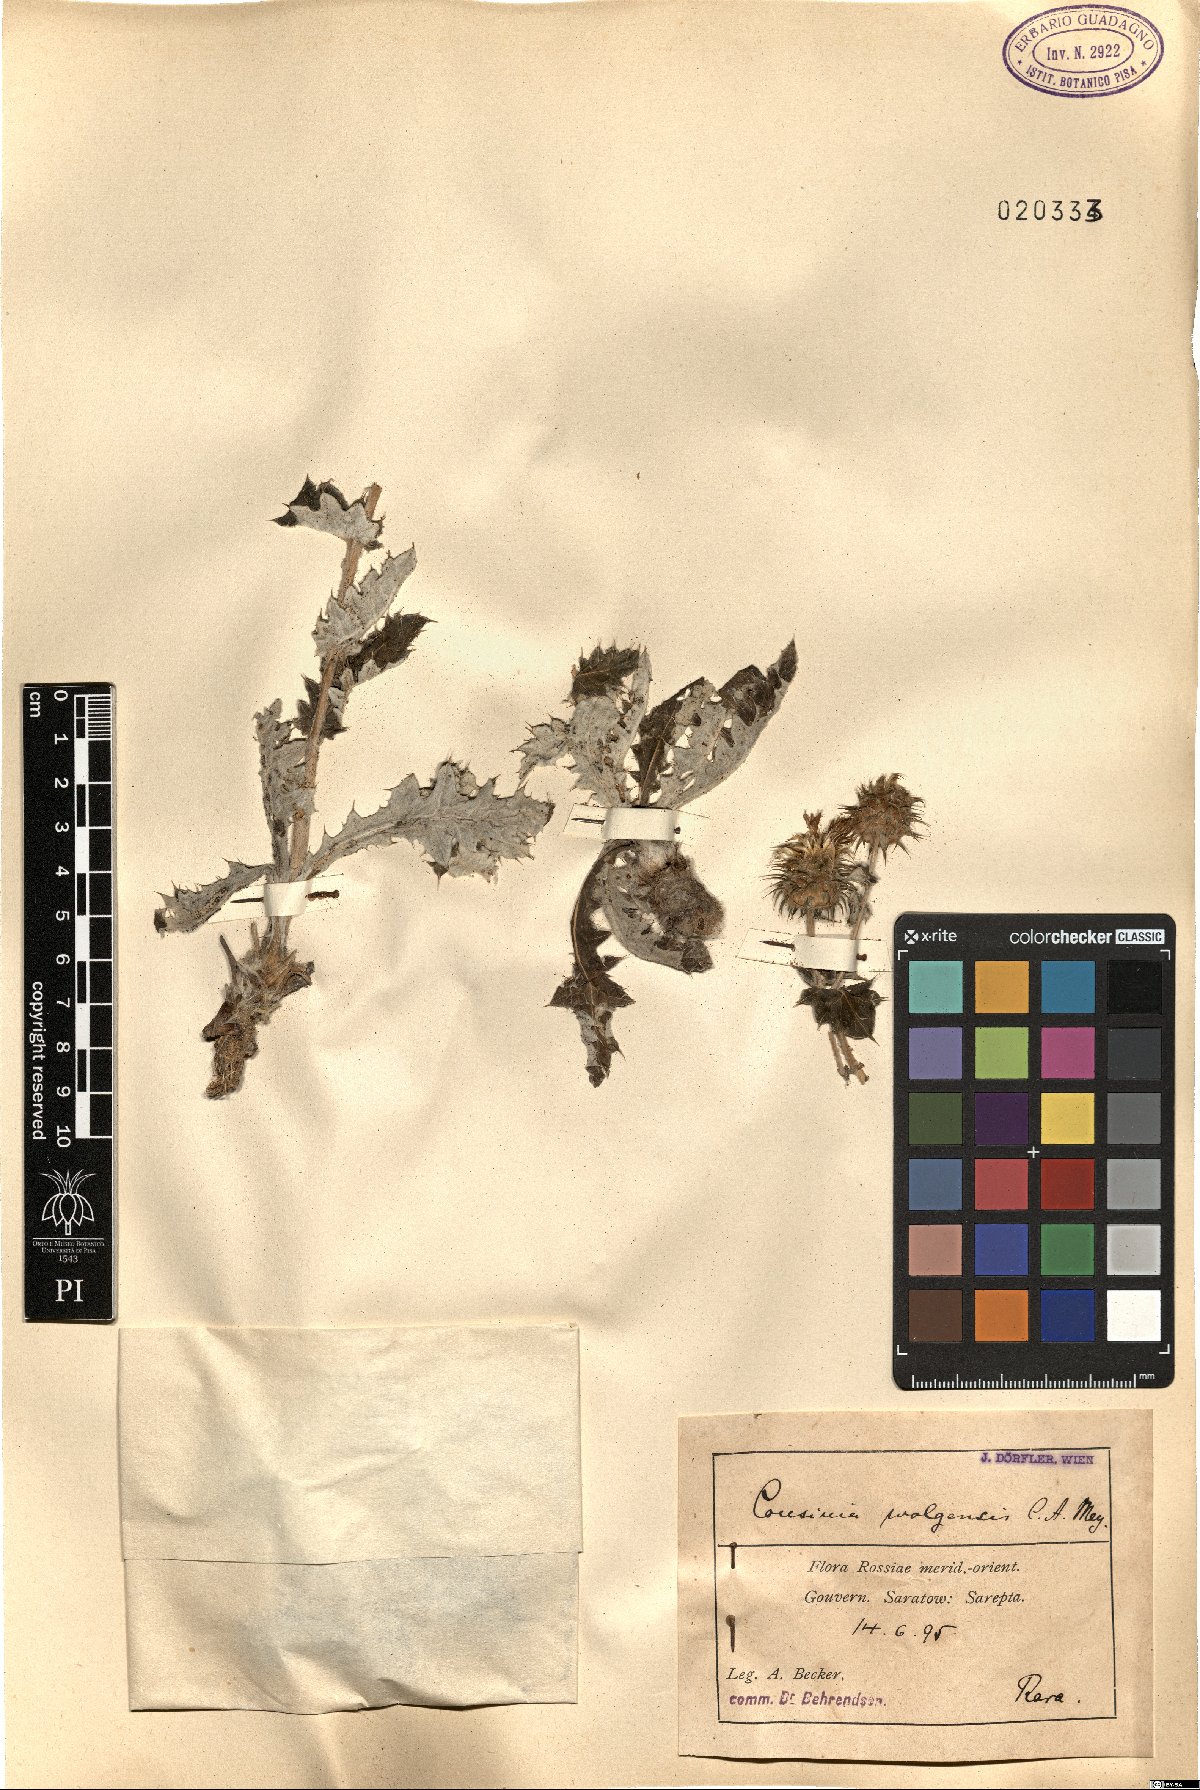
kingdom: Plantae
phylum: Tracheophyta
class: Magnoliopsida
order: Asterales
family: Asteraceae
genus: Cousinia
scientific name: Cousinia astracanica
